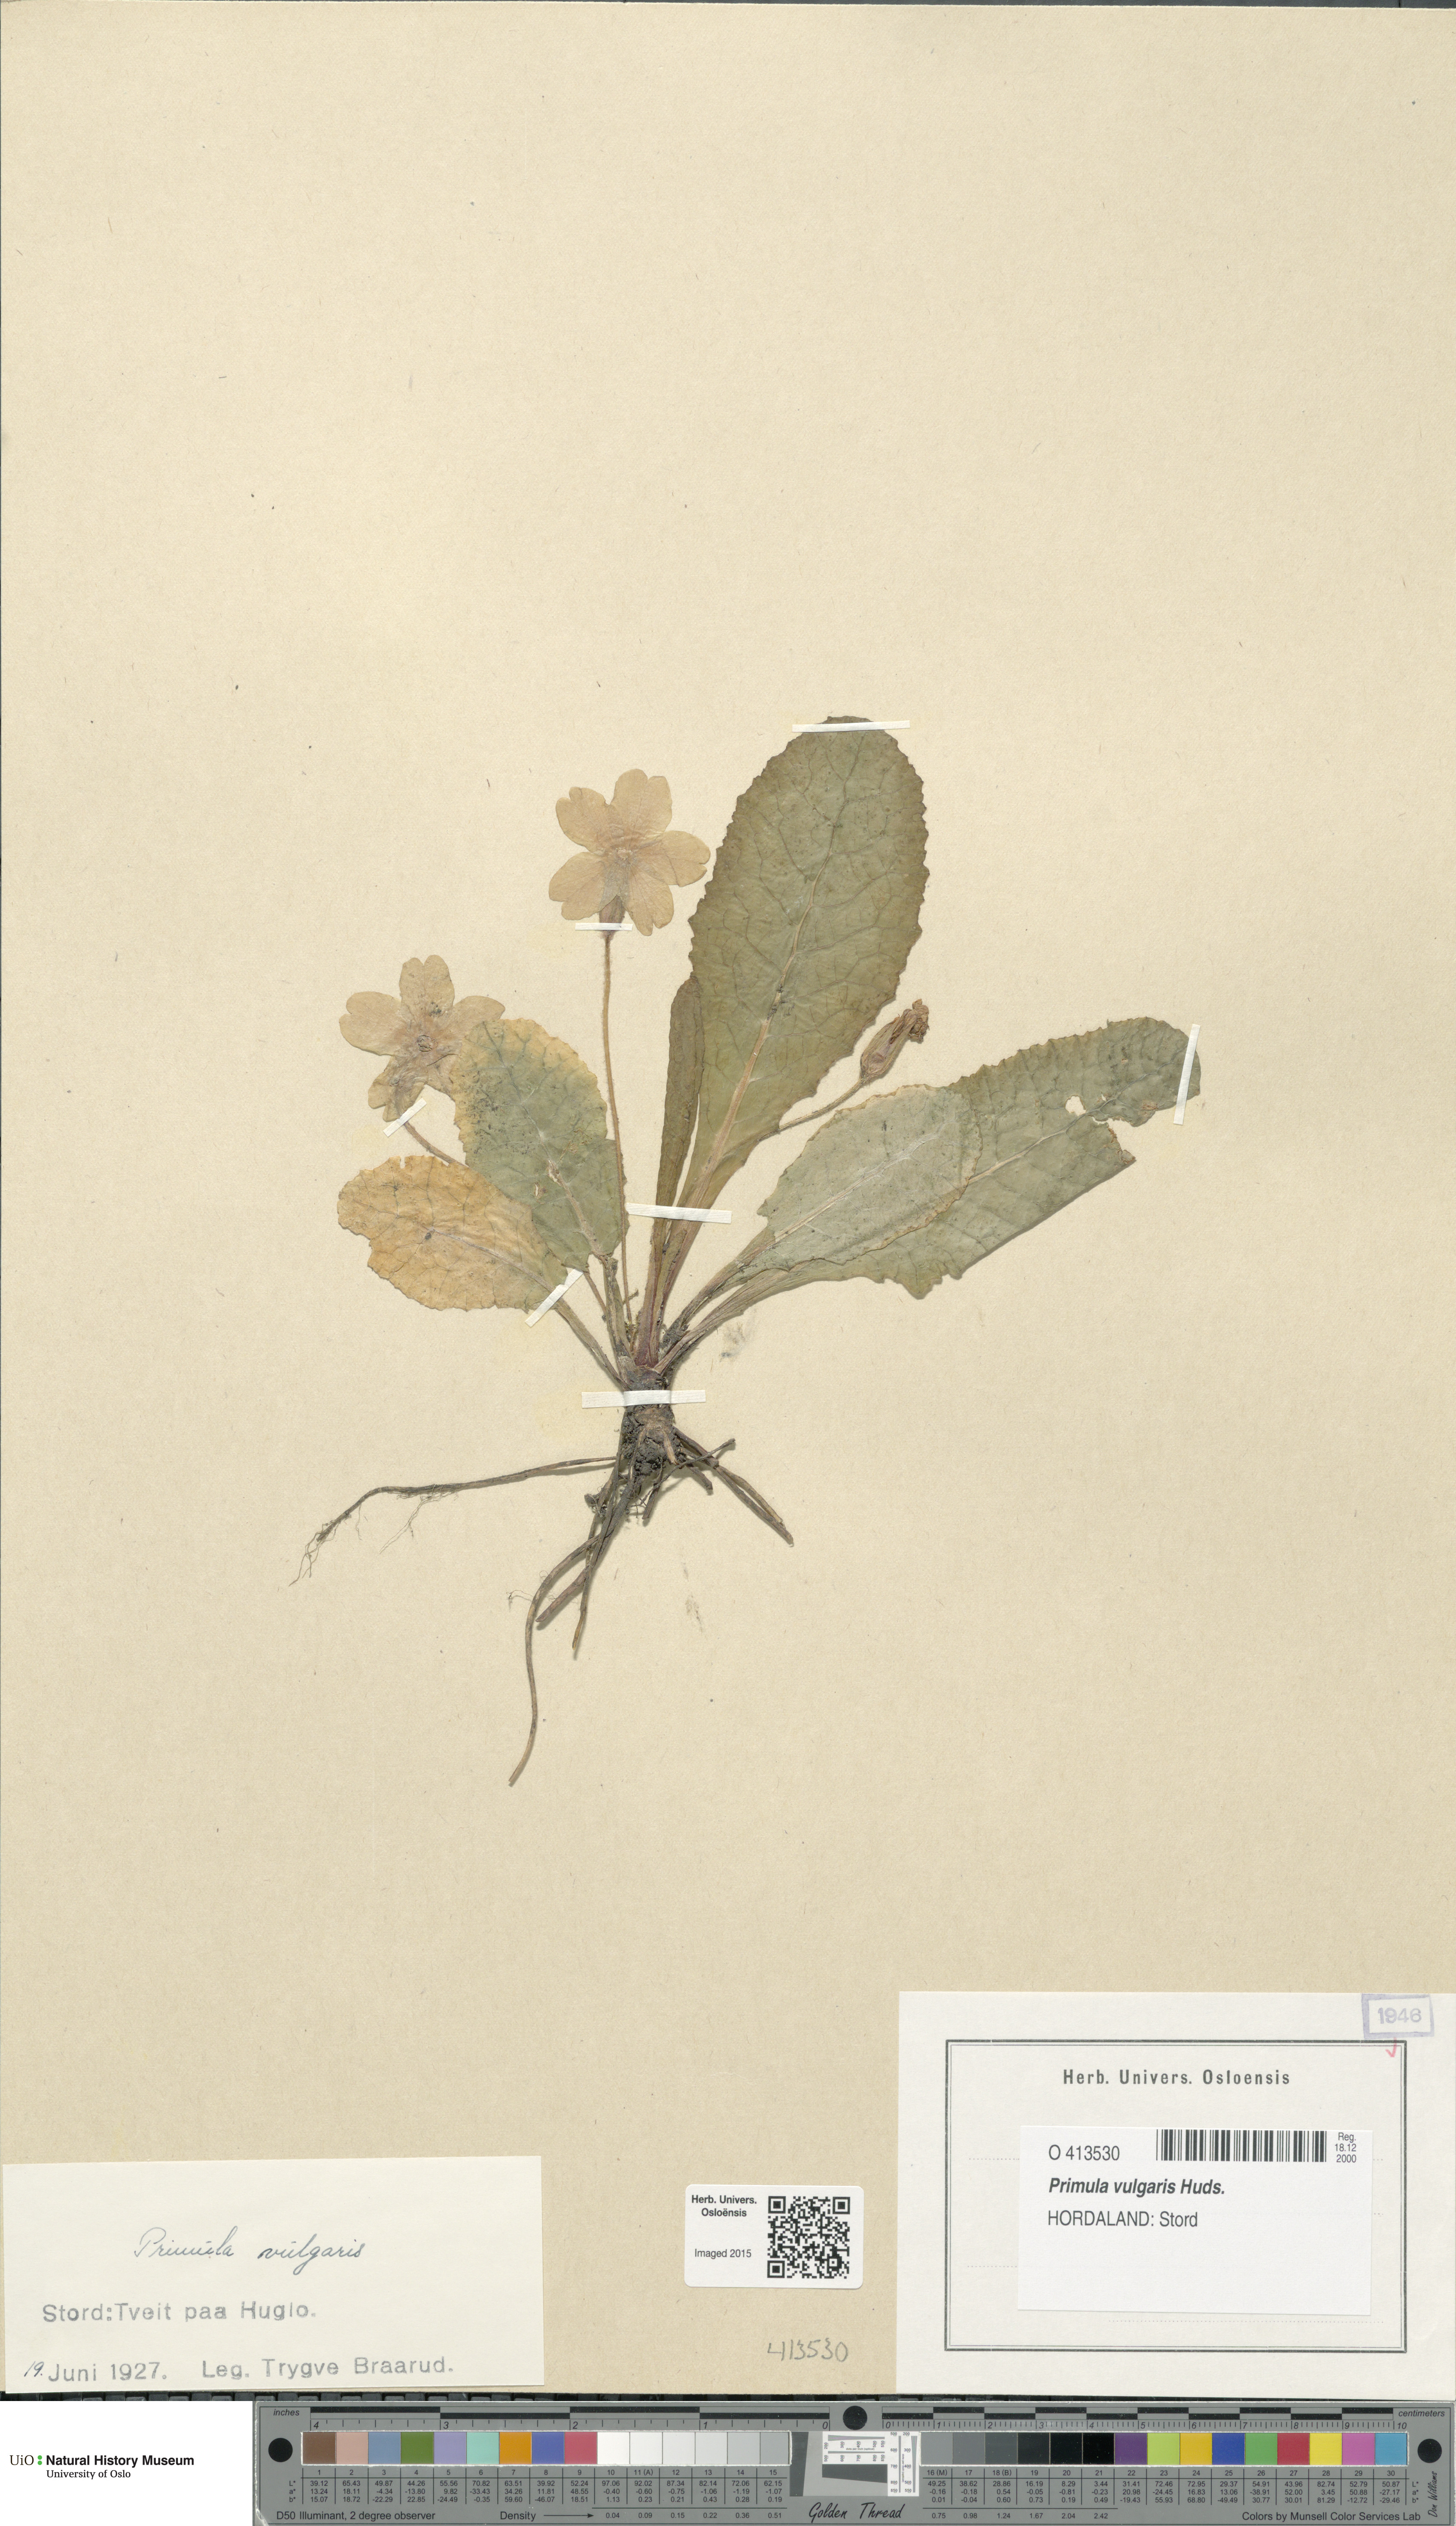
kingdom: Plantae
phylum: Tracheophyta
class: Magnoliopsida
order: Ericales
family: Primulaceae
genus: Primula
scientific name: Primula vulgaris
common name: Primrose
